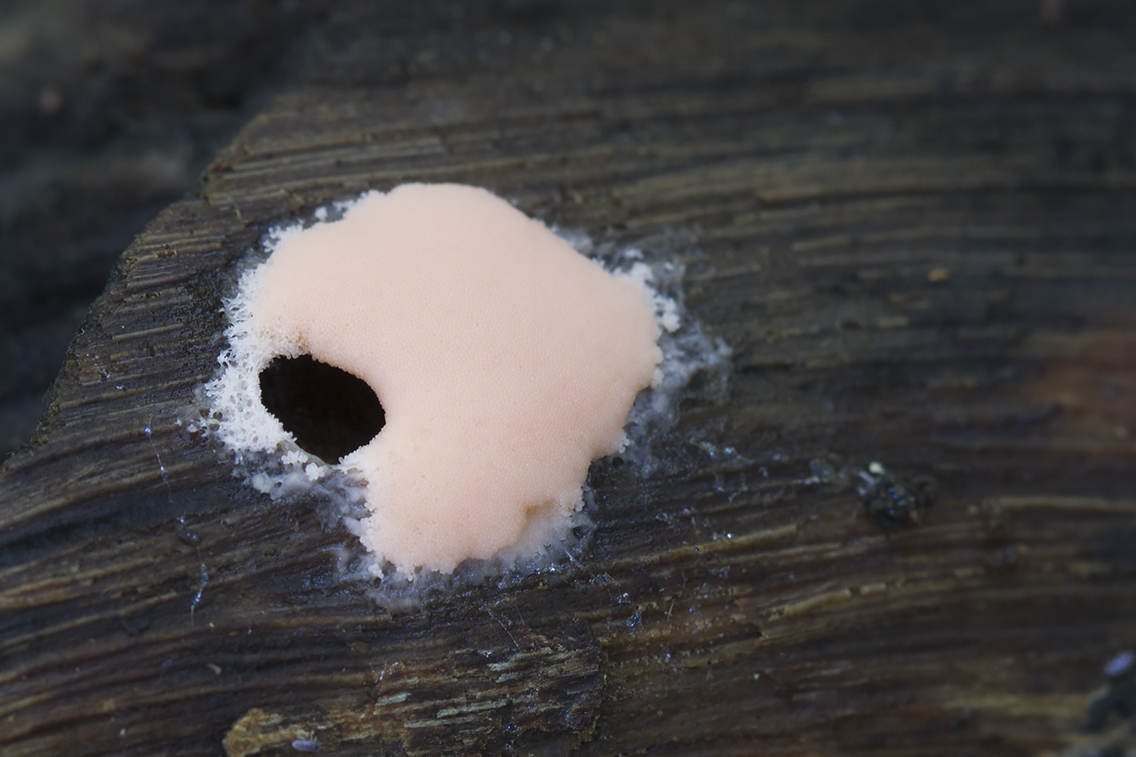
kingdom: Protozoa
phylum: Mycetozoa
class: Myxomycetes
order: Trichiales
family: Dictydiaethaliaceae
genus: Dictydiaethalium
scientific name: Dictydiaethalium plumbeum
